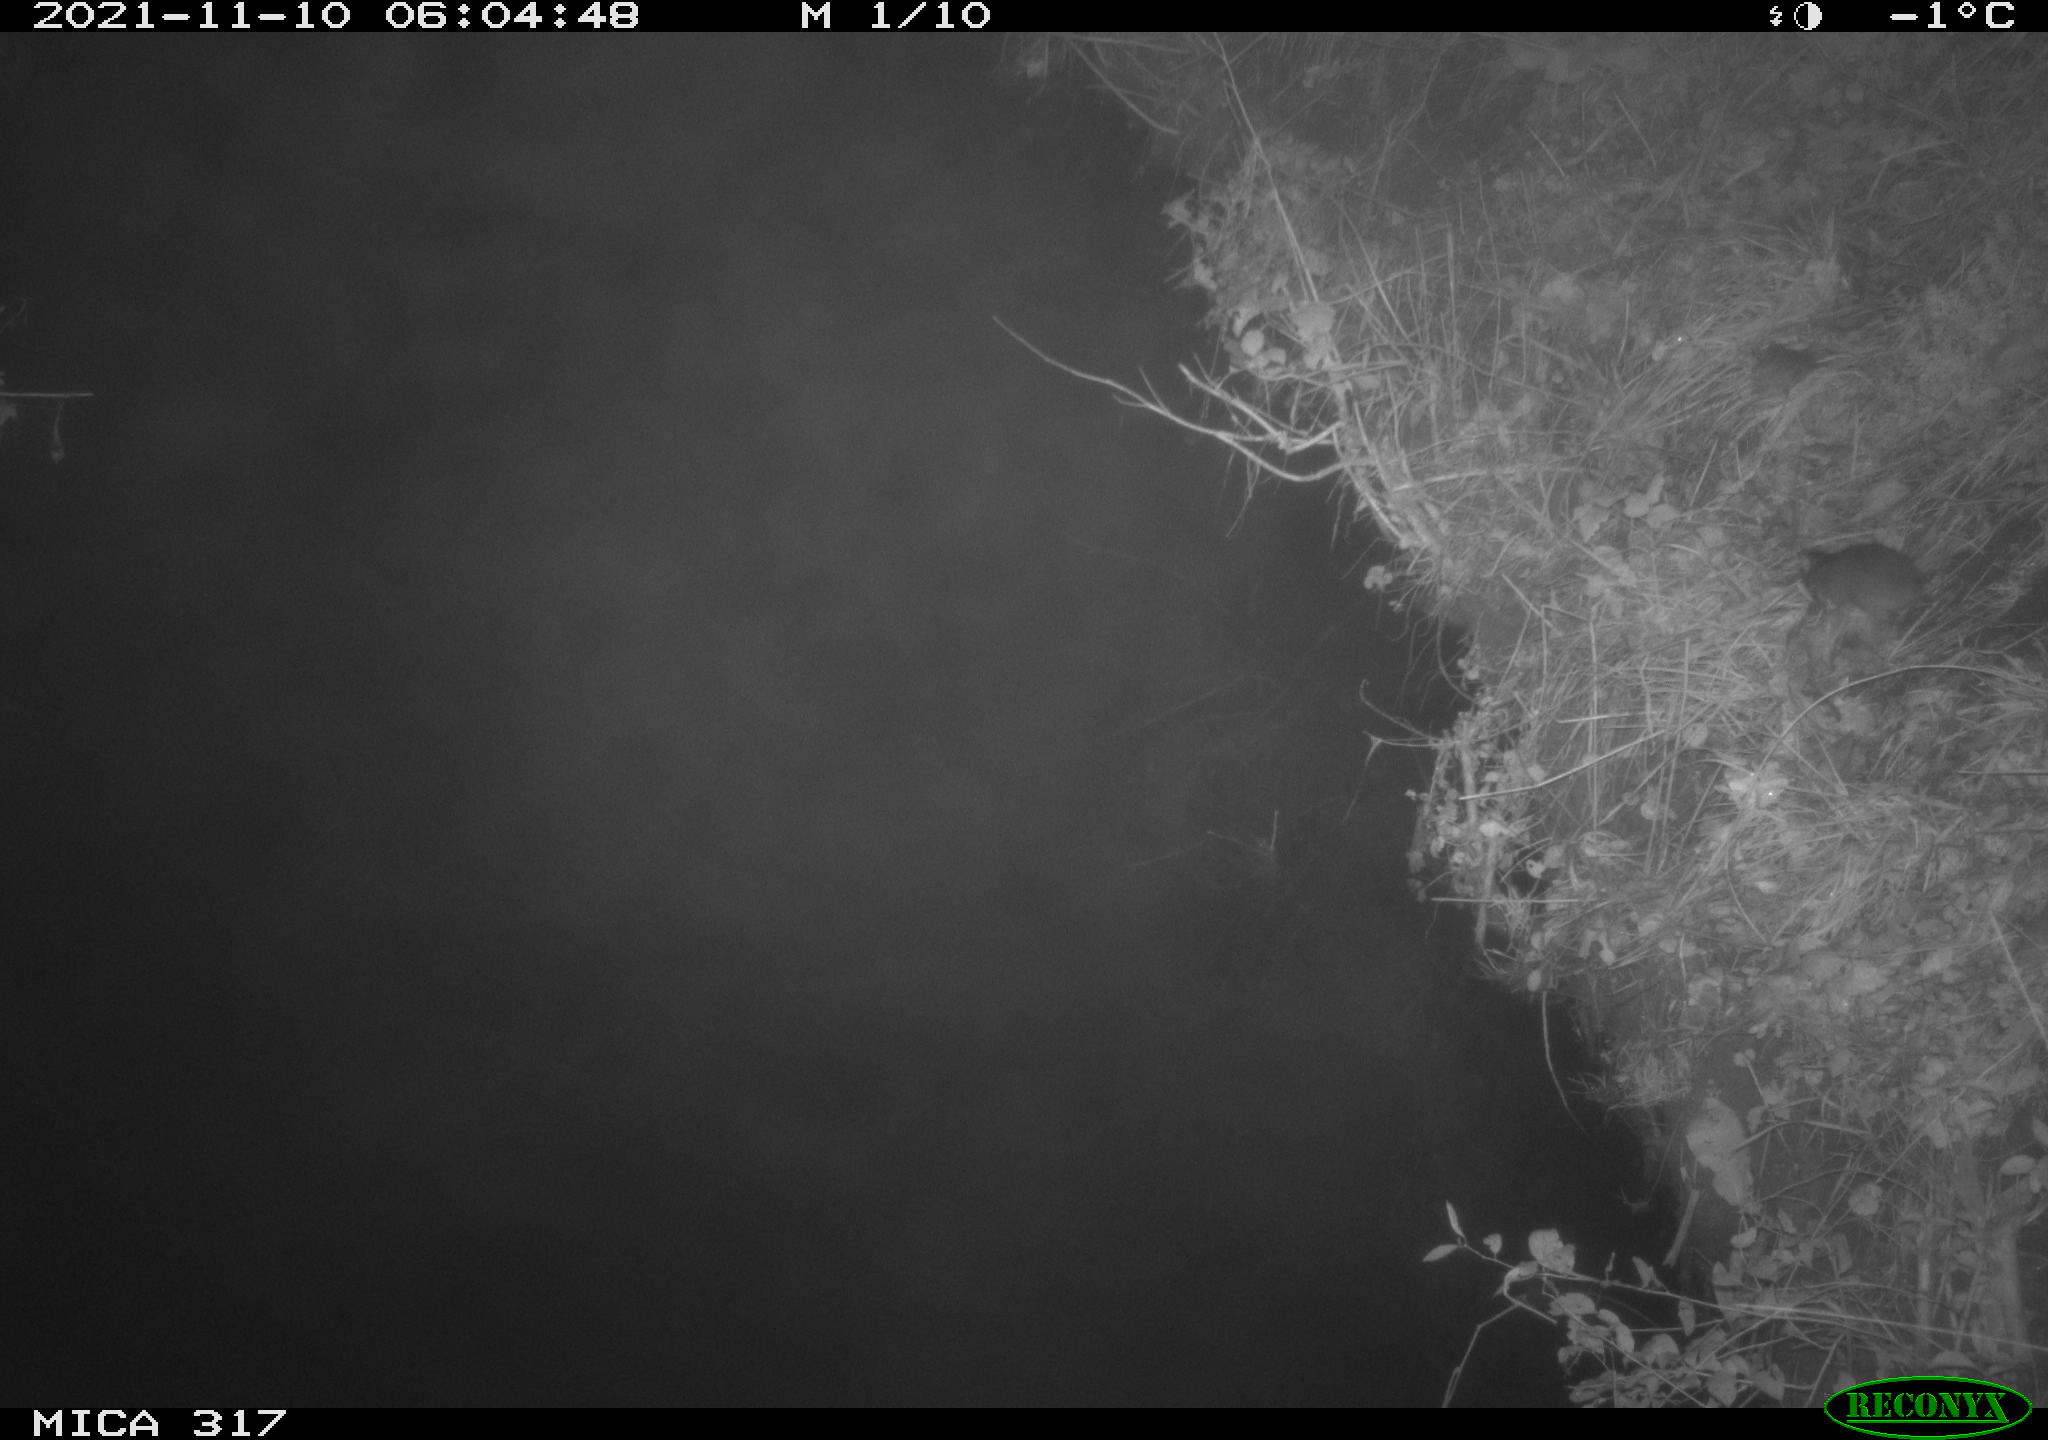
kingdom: Animalia
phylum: Chordata
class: Mammalia
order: Rodentia
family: Muridae
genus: Rattus
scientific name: Rattus norvegicus
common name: Brown rat
